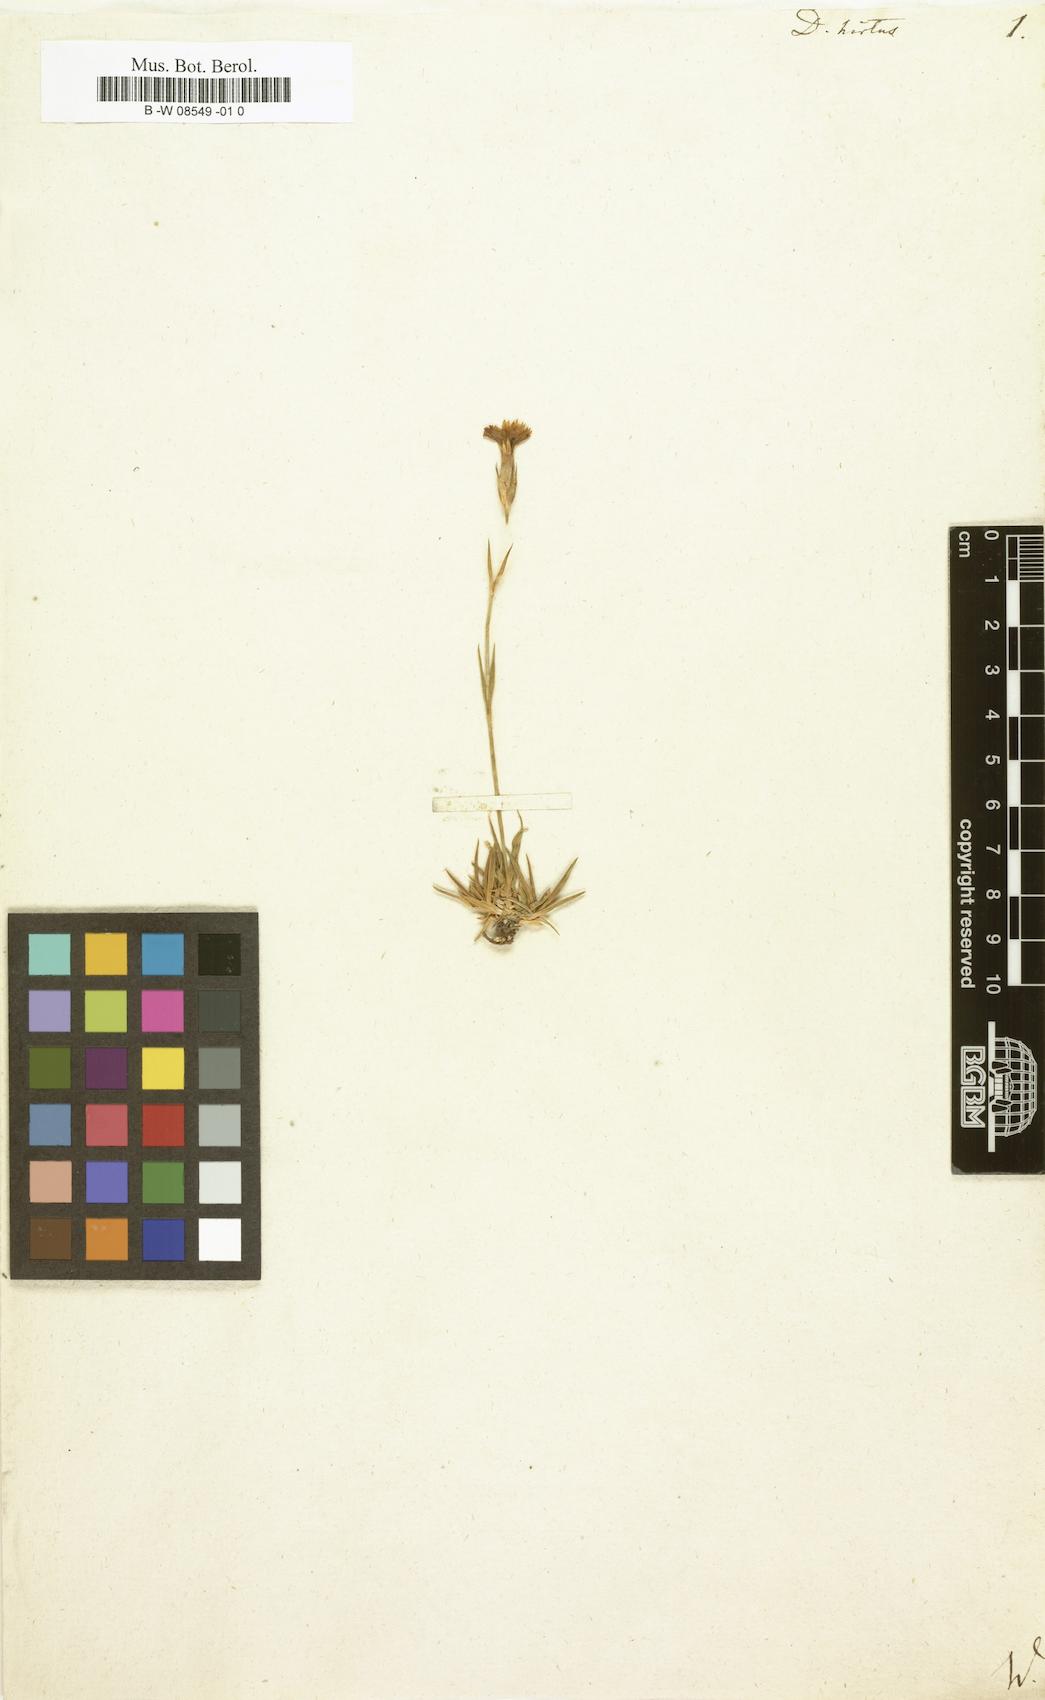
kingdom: Plantae
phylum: Tracheophyta
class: Magnoliopsida
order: Caryophyllales
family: Caryophyllaceae
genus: Dianthus
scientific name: Dianthus
